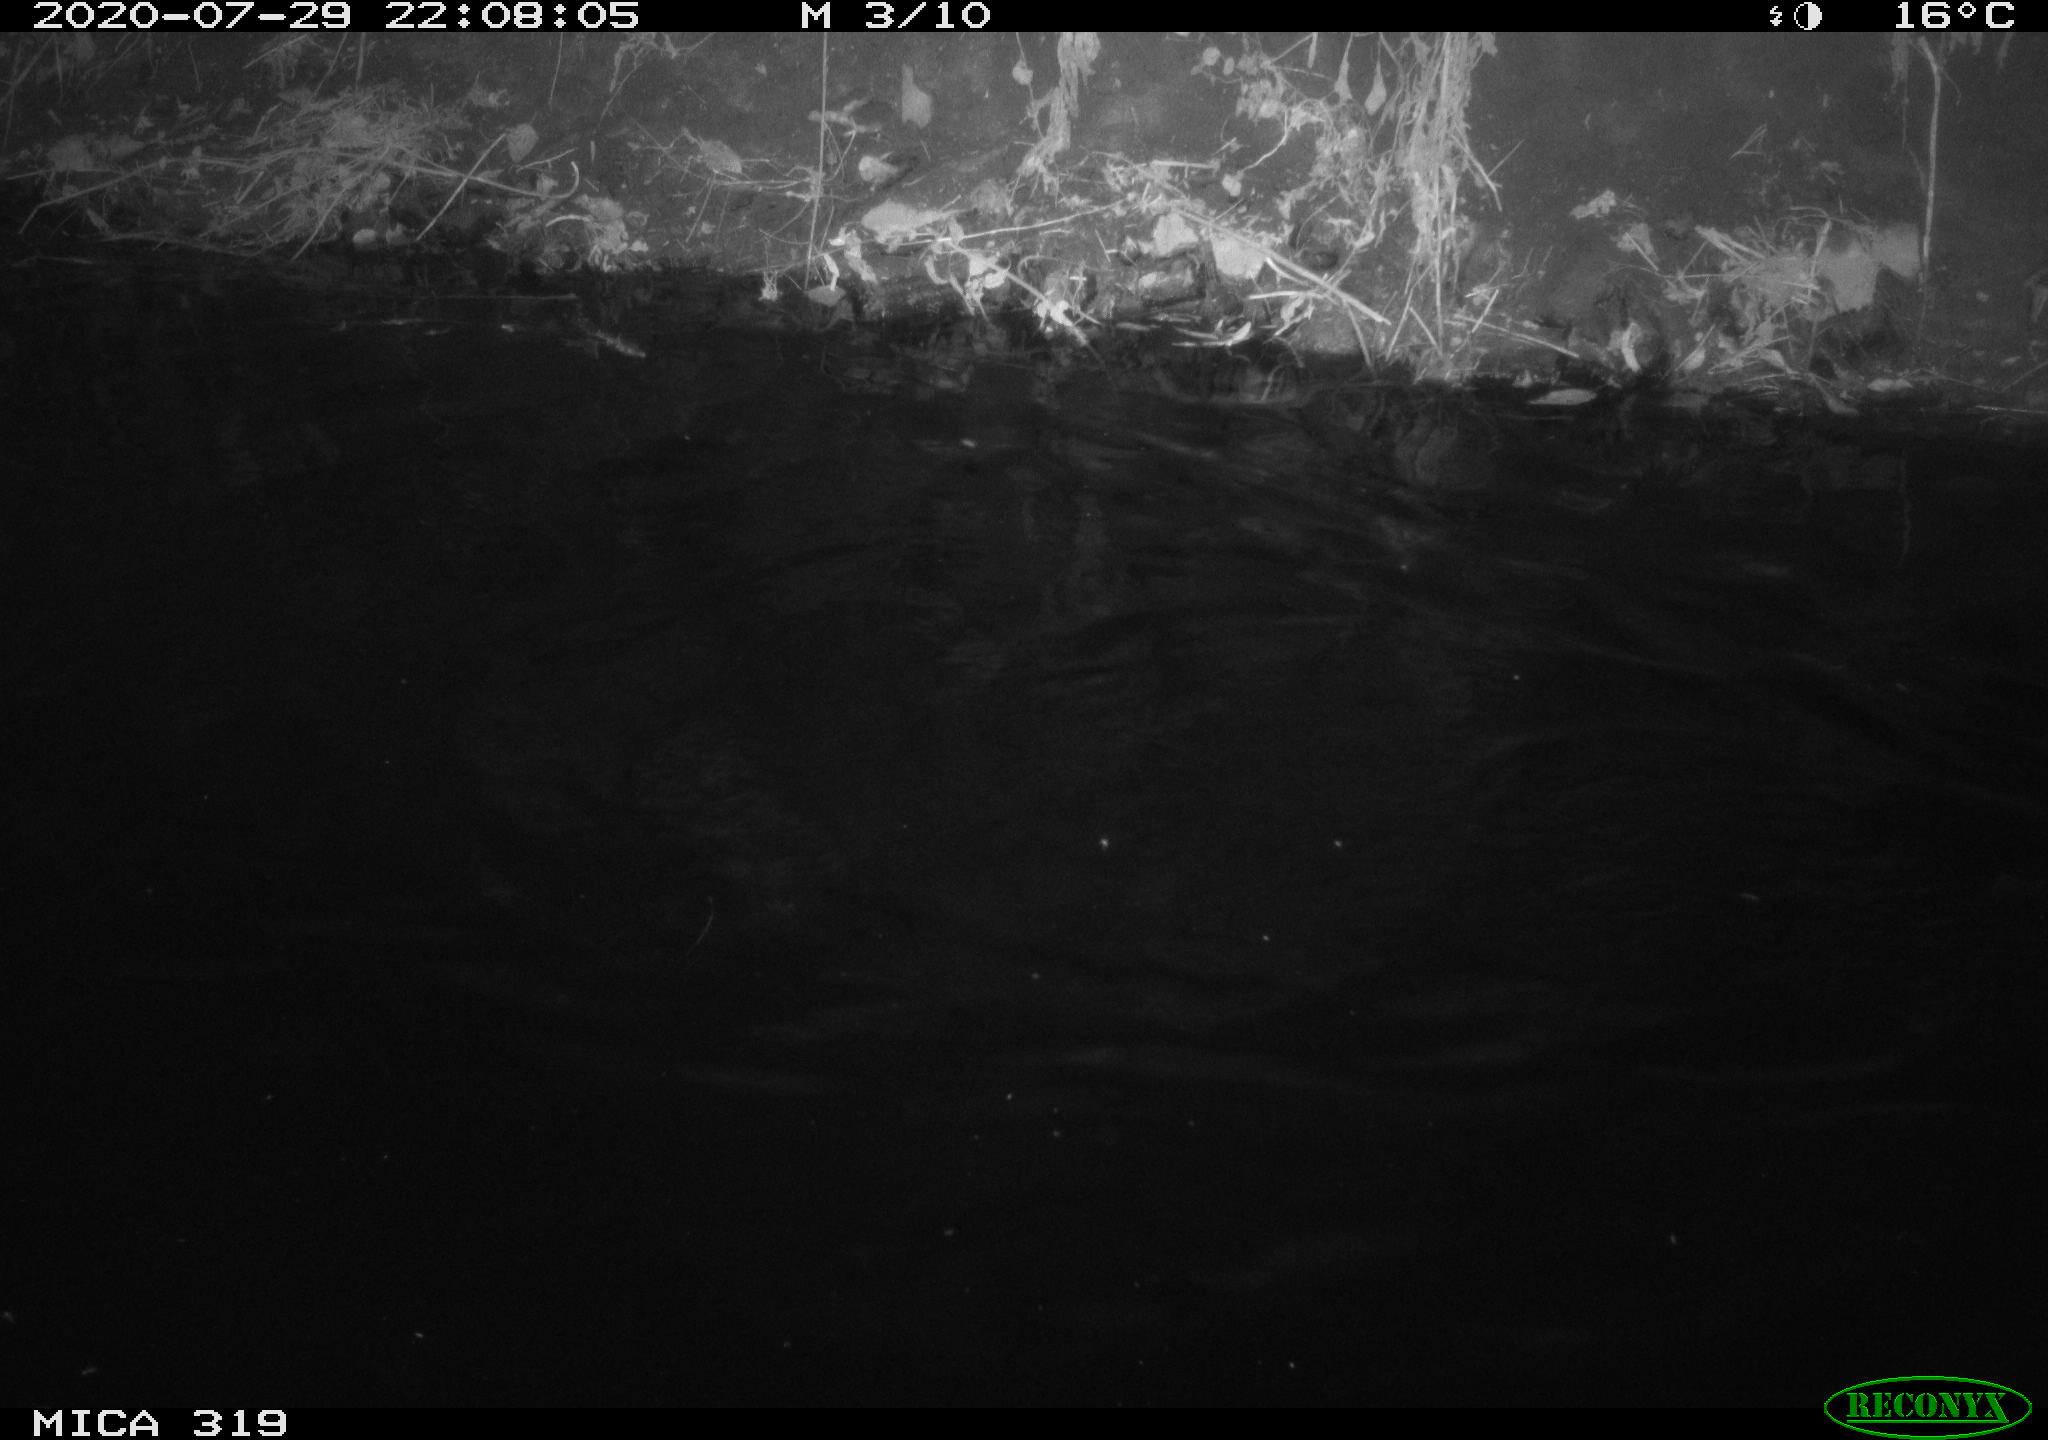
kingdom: Animalia
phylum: Chordata
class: Aves
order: Anseriformes
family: Anatidae
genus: Anas
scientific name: Anas platyrhynchos
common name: Mallard
